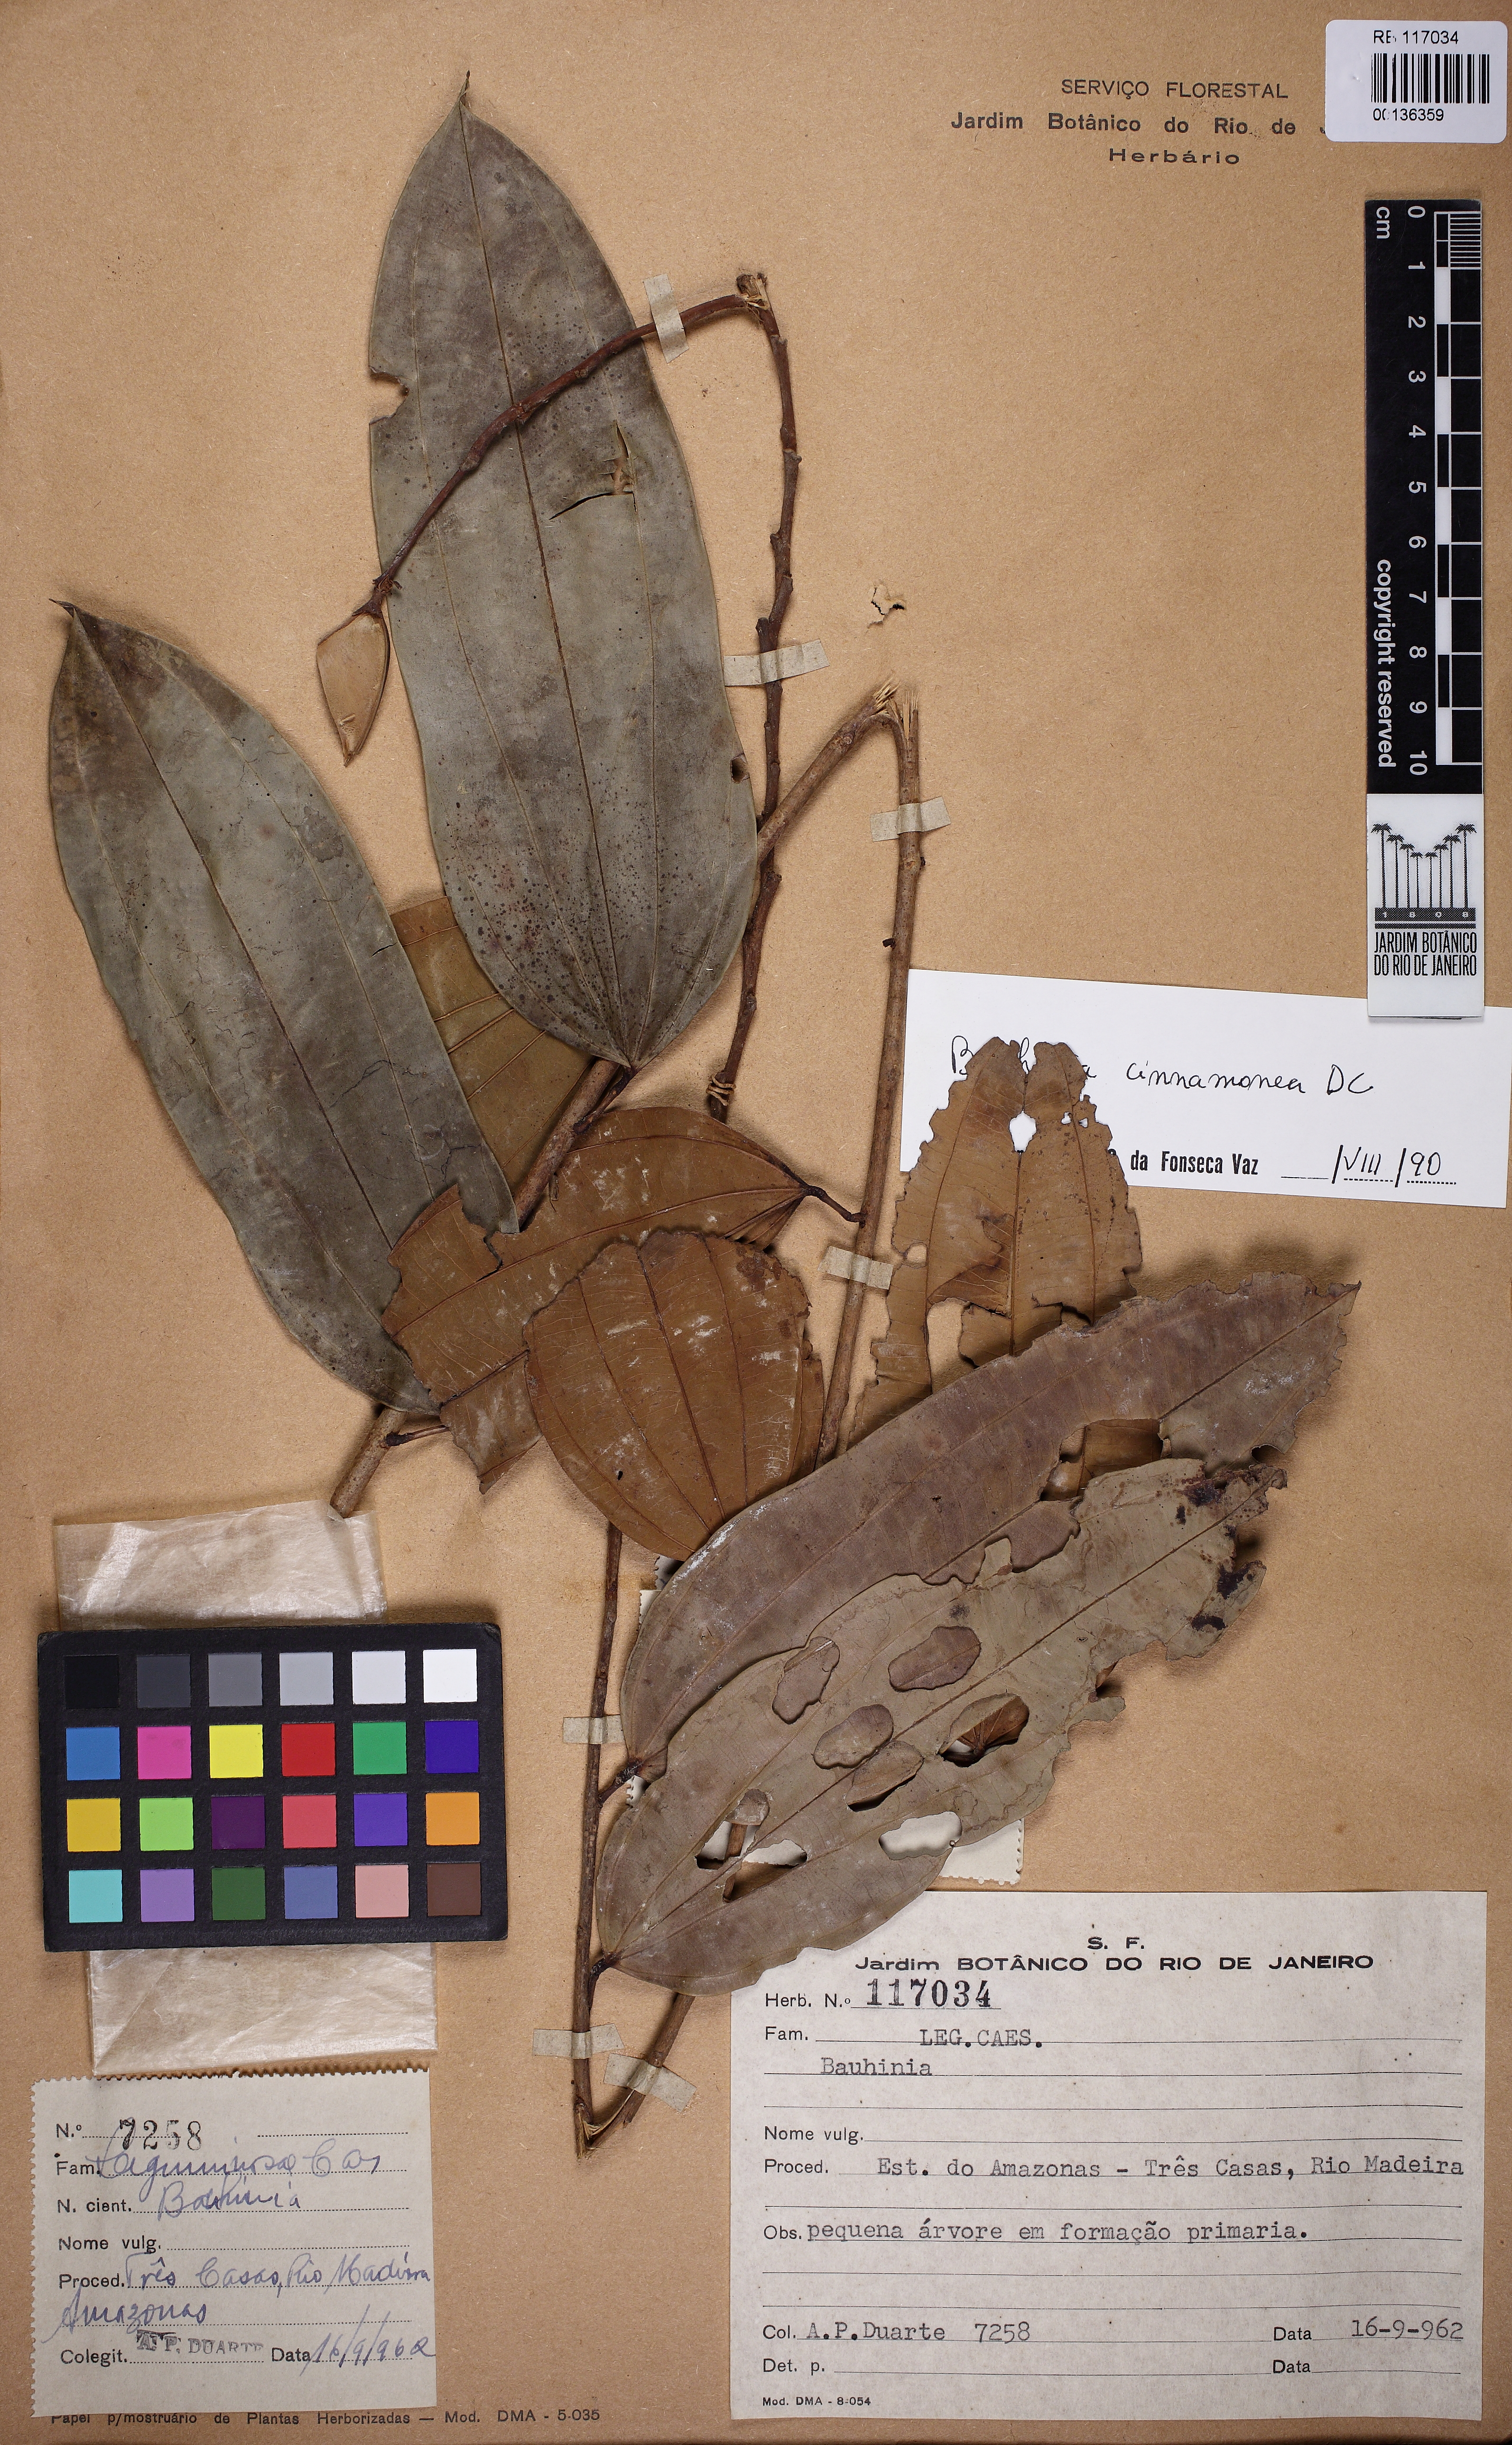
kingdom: Plantae
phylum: Tracheophyta
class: Magnoliopsida
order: Fabales
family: Fabaceae
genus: Bauhinia
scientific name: Bauhinia cinnamomea
